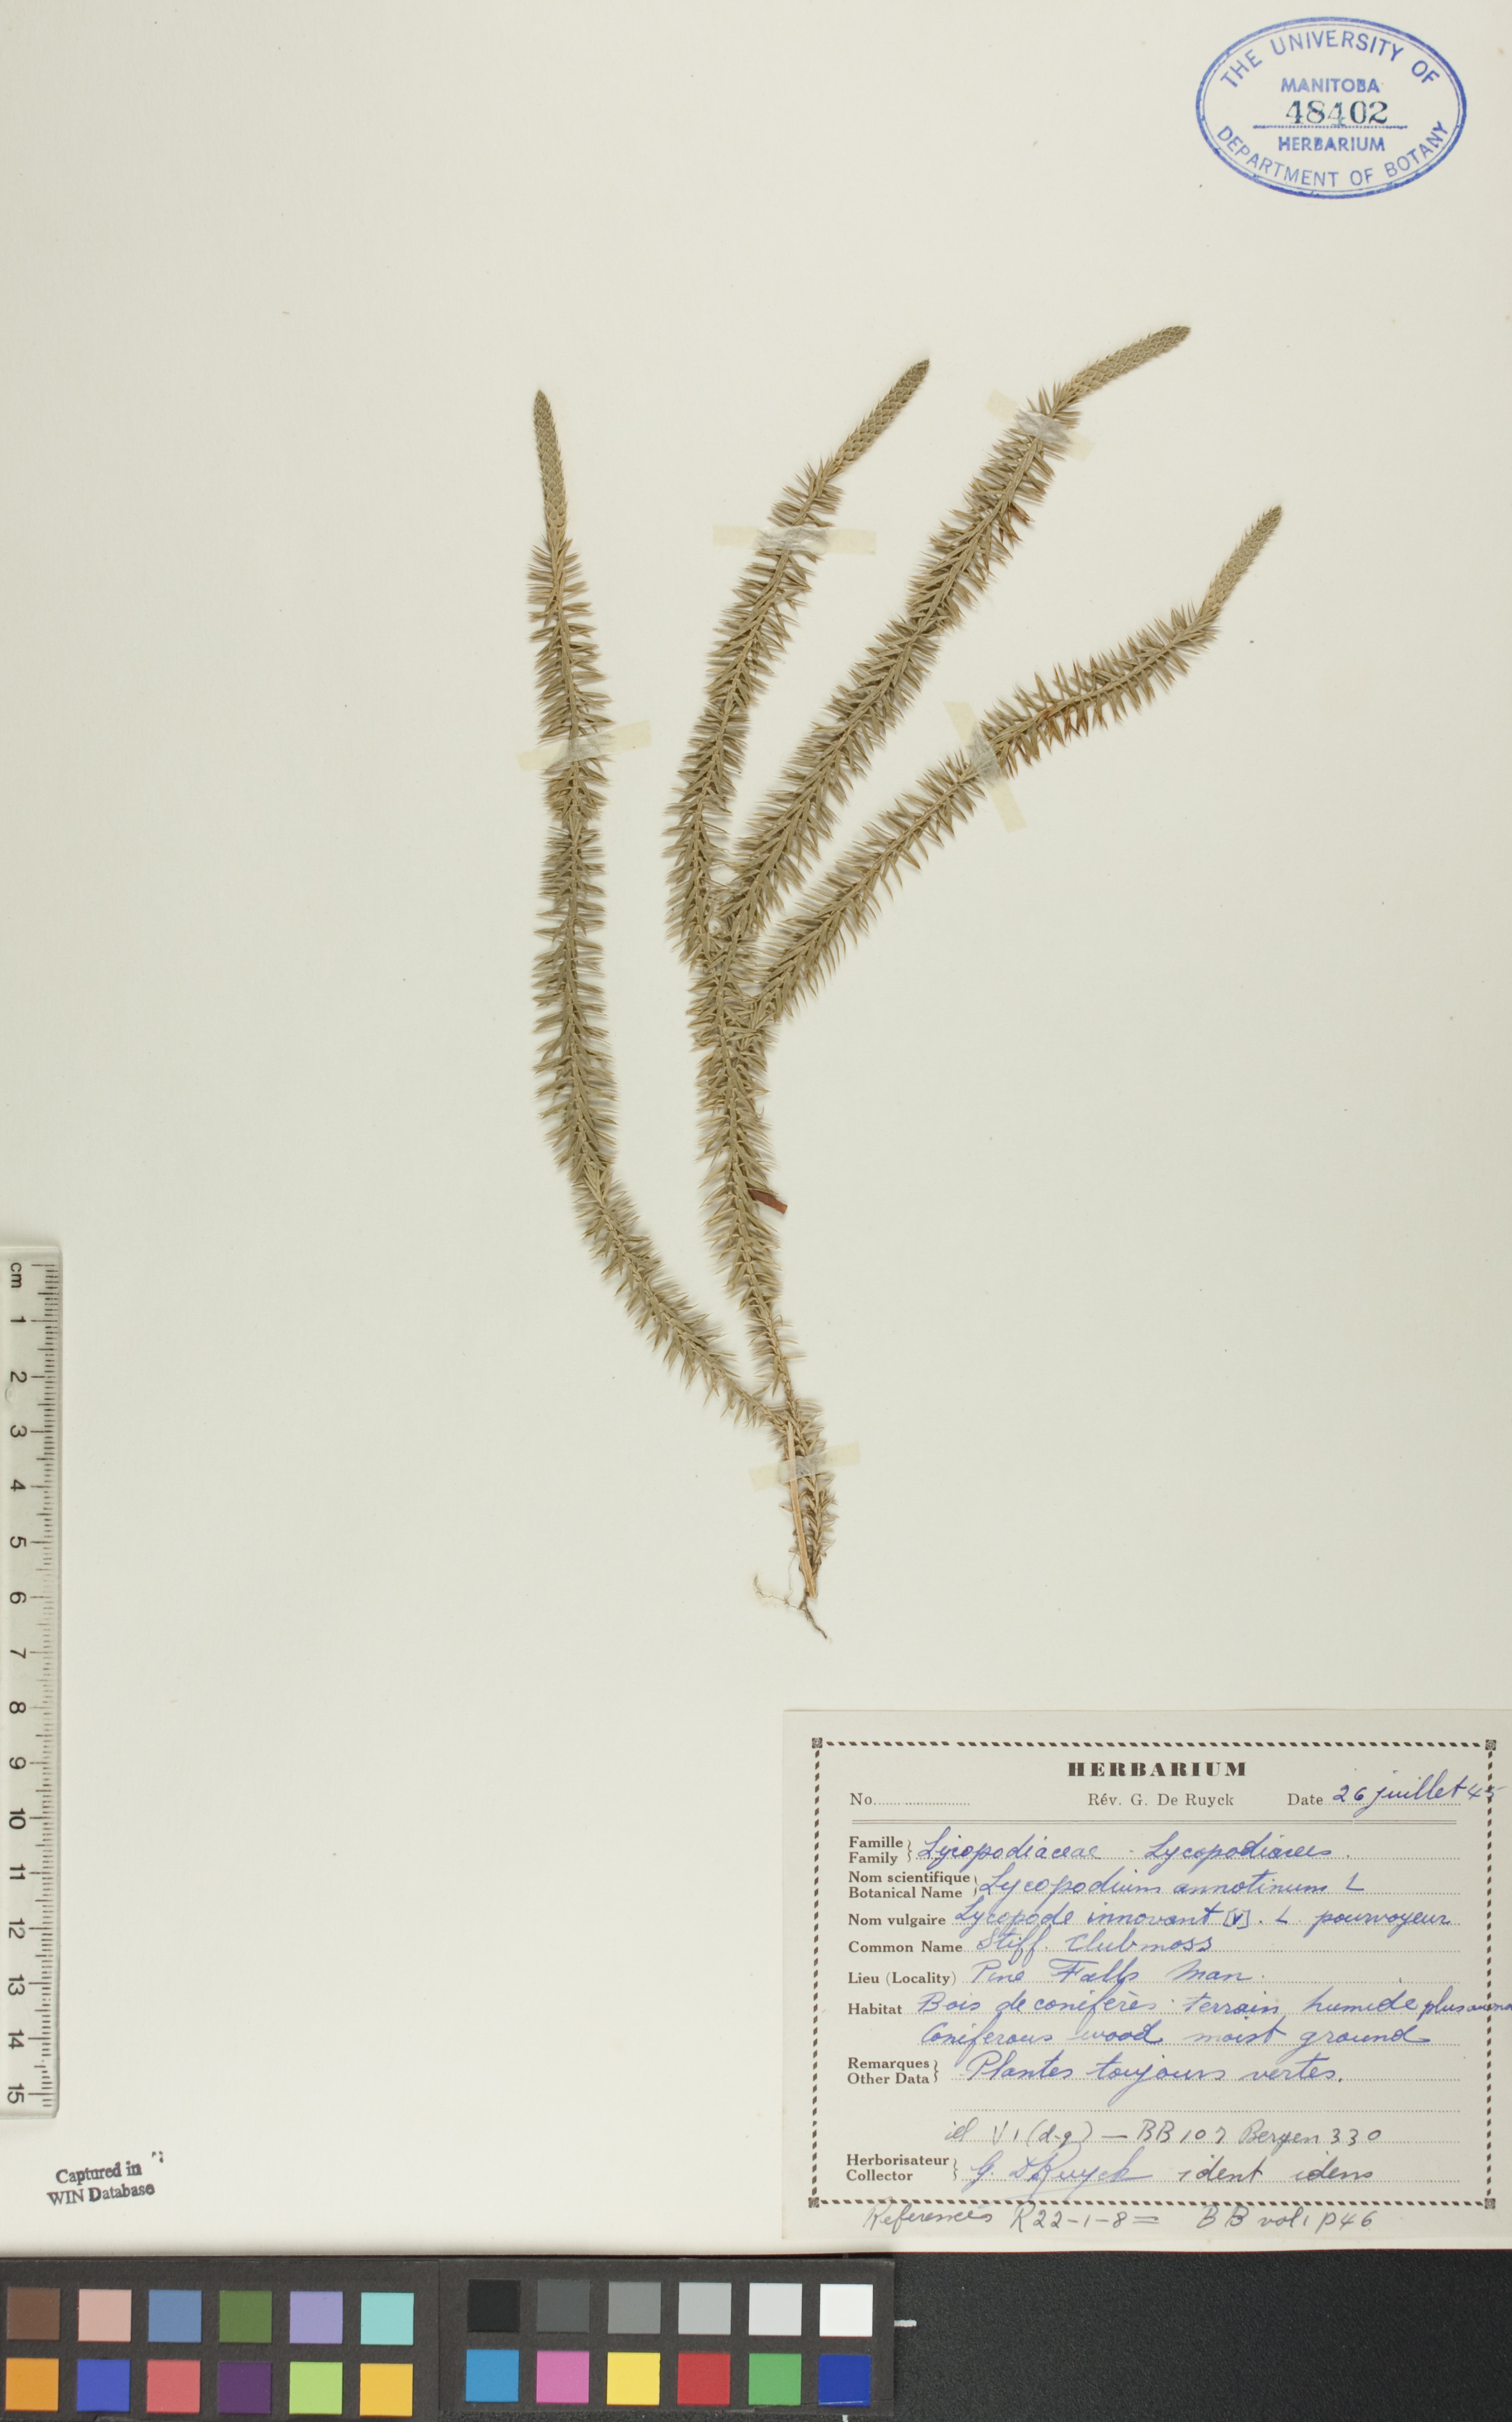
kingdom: Plantae
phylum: Tracheophyta
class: Lycopodiopsida
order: Lycopodiales
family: Lycopodiaceae
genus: Spinulum
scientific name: Spinulum annotinum
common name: Interrupted club-moss
